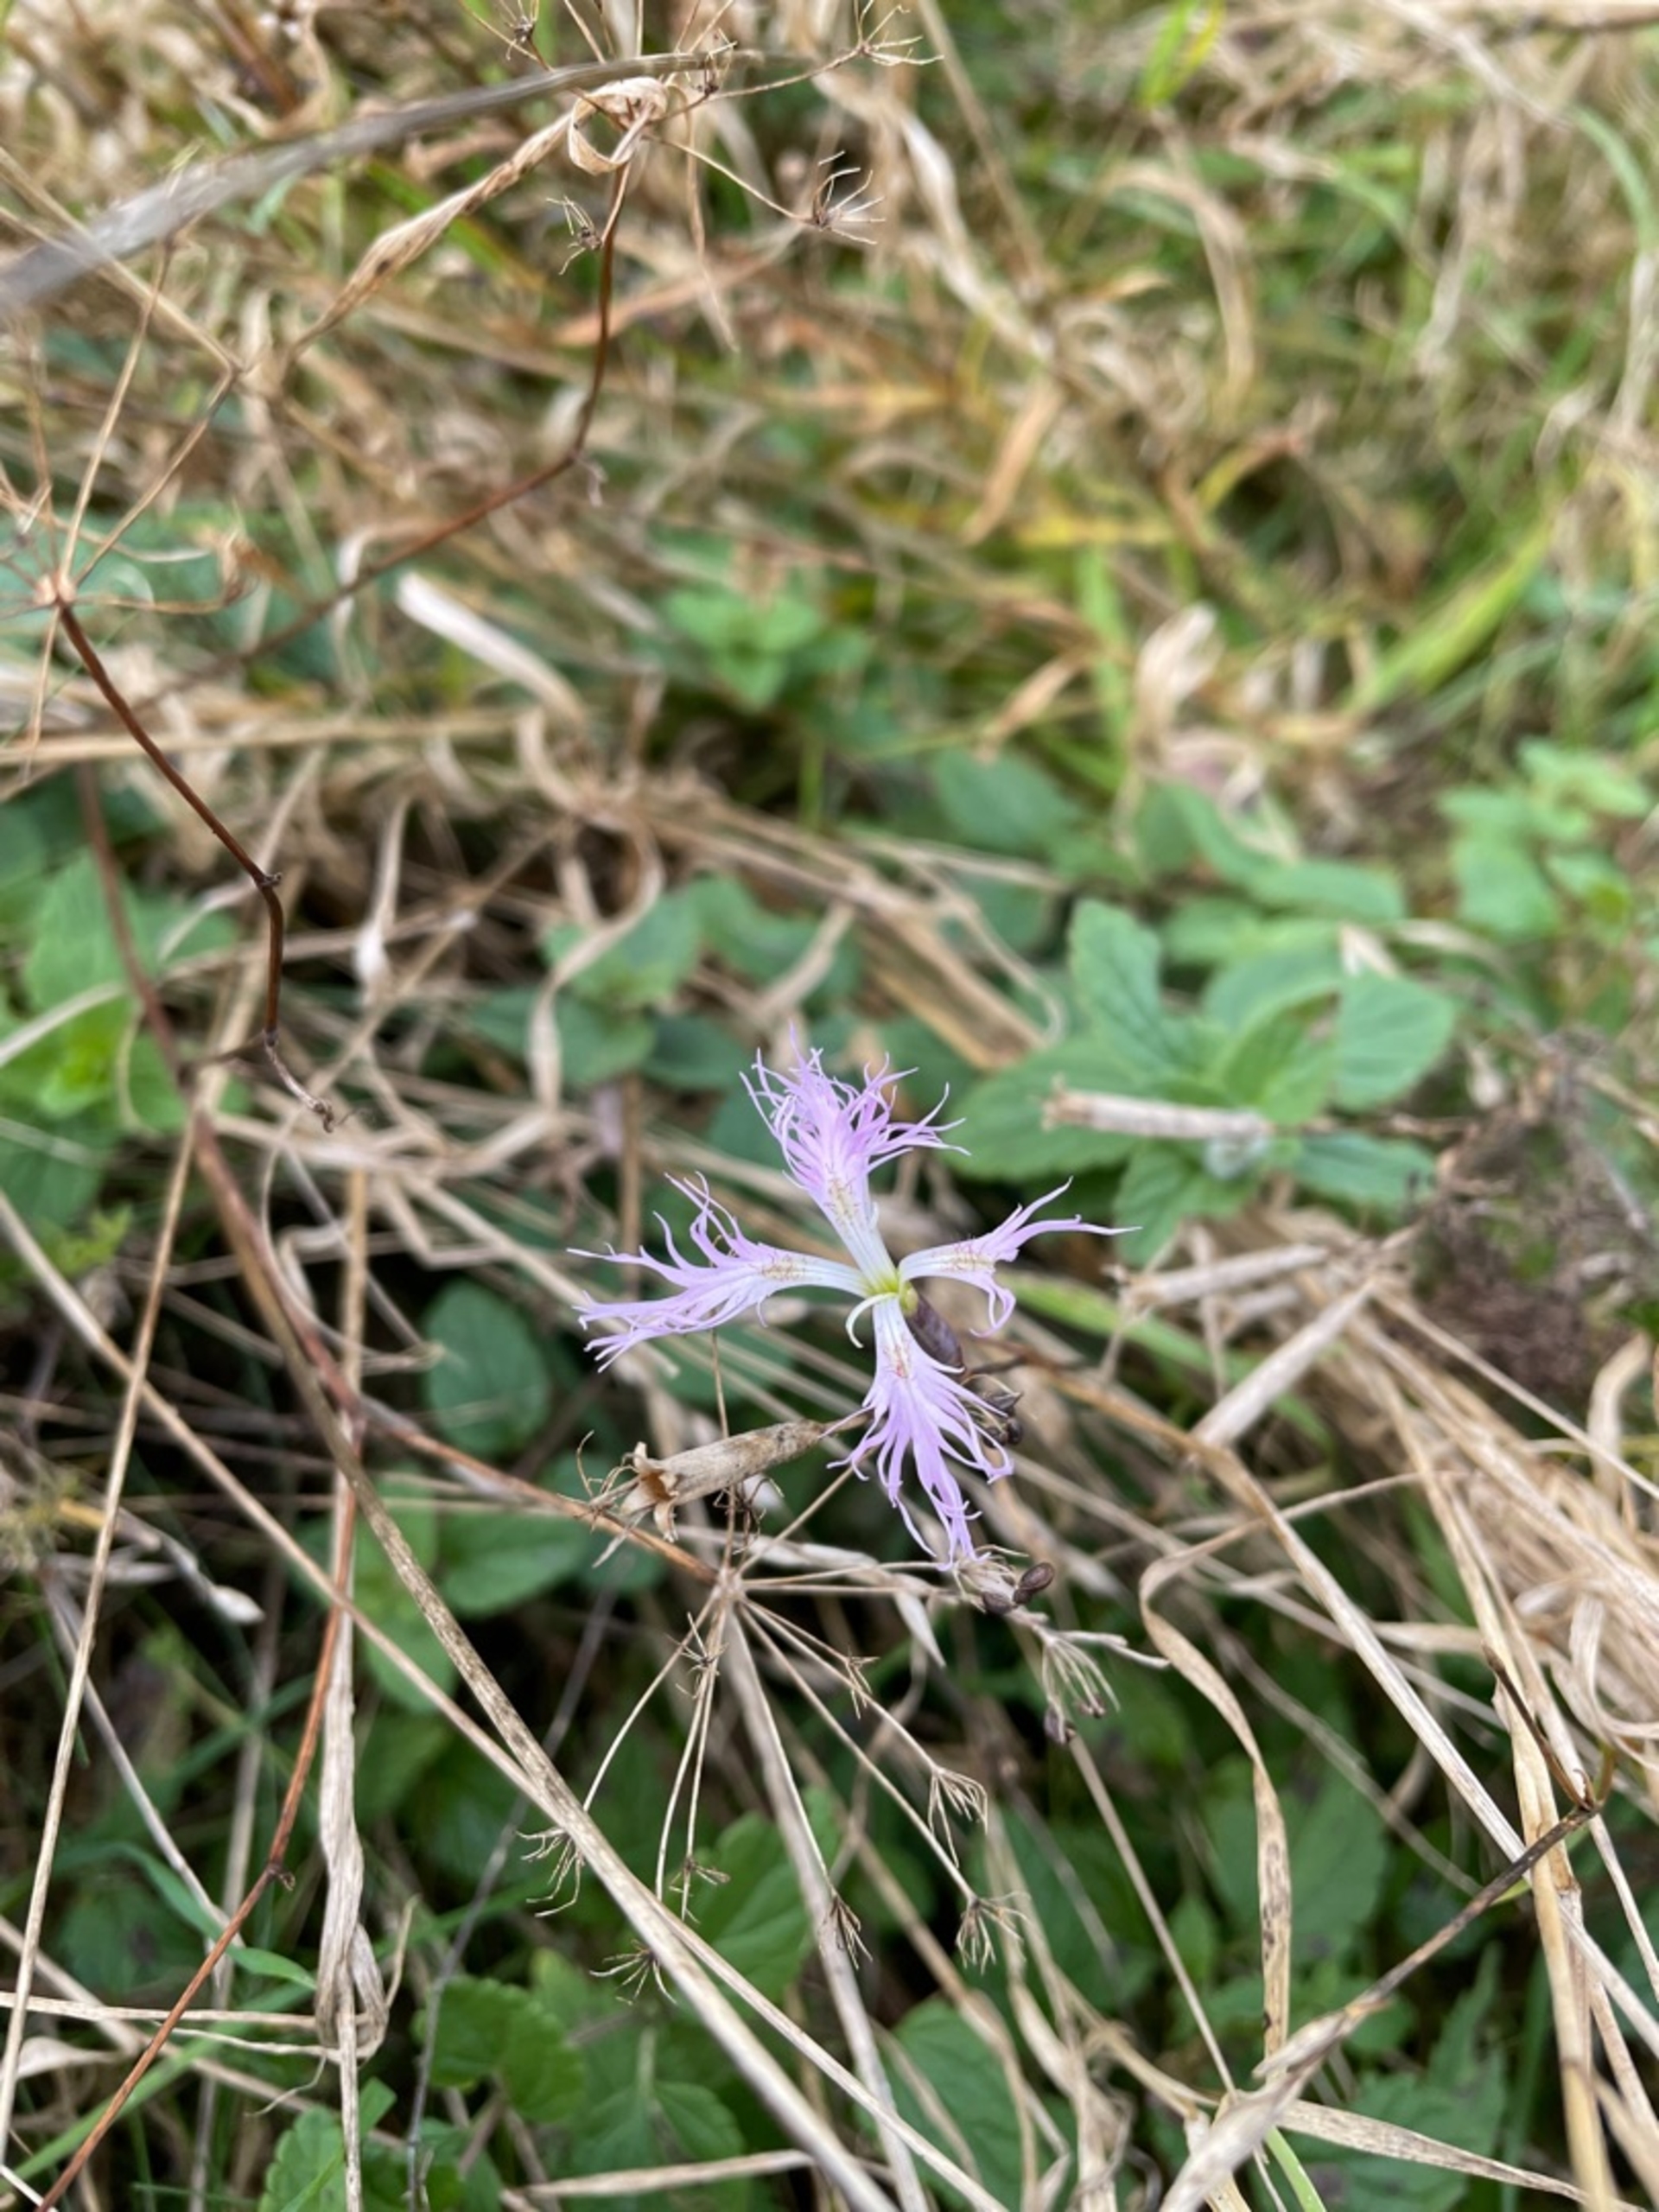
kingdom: Plantae
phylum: Tracheophyta
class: Magnoliopsida
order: Caryophyllales
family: Caryophyllaceae
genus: Dianthus
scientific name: Dianthus superbus
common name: Strand-nellike
